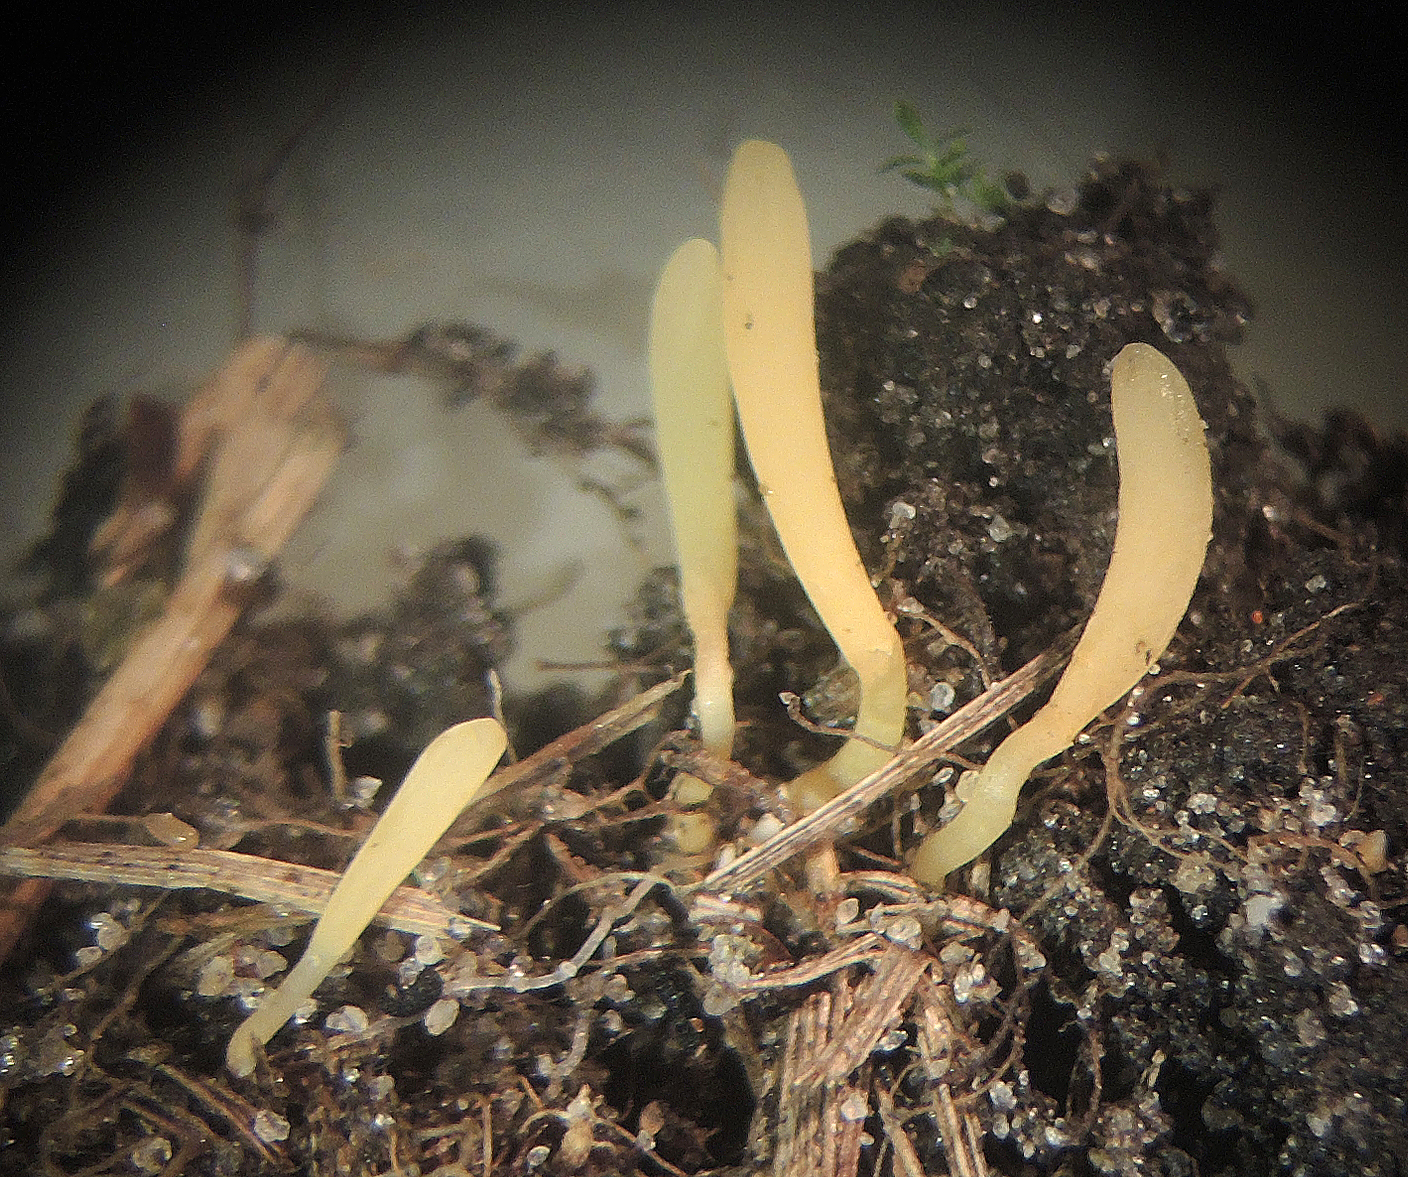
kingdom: Fungi
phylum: Basidiomycota
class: Agaricomycetes
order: Agaricales
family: Clavariaceae
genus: Ramariopsis
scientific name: Ramariopsis luteonana
